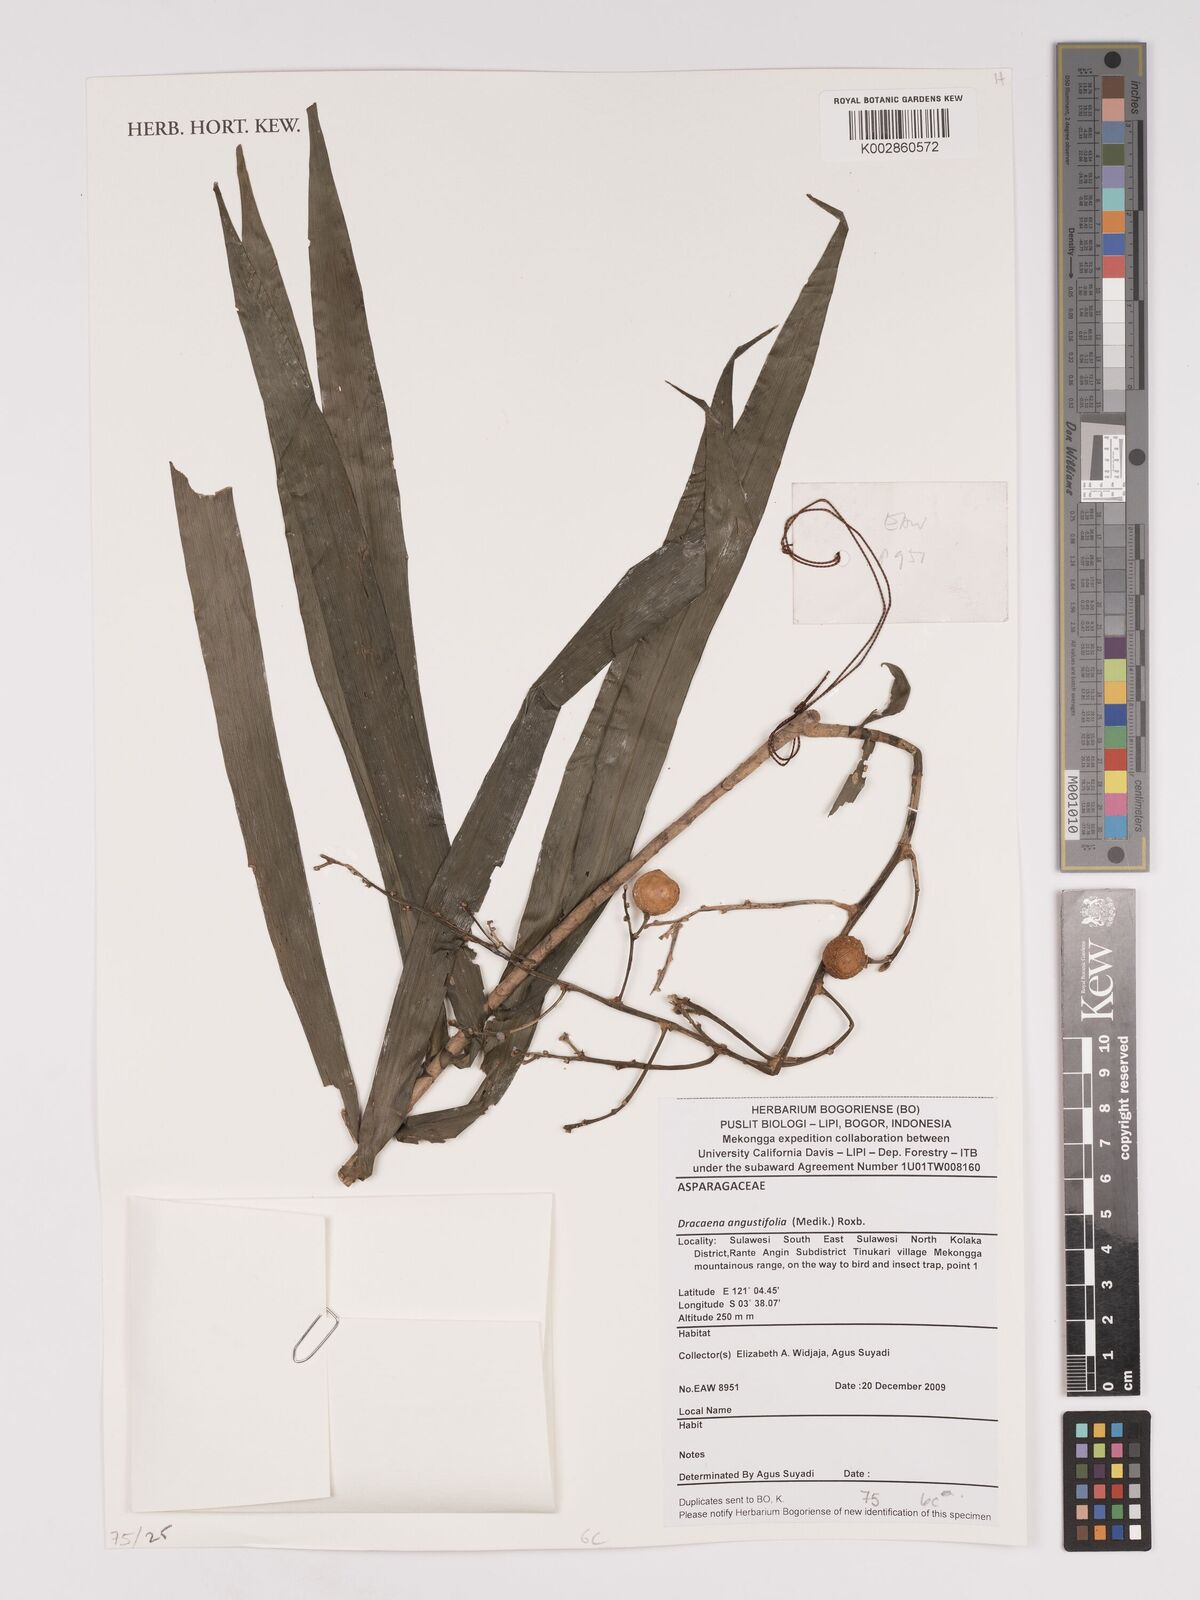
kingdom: Plantae
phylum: Tracheophyta
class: Liliopsida
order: Asparagales
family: Asparagaceae
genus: Dracaena
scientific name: Dracaena angustifolia
